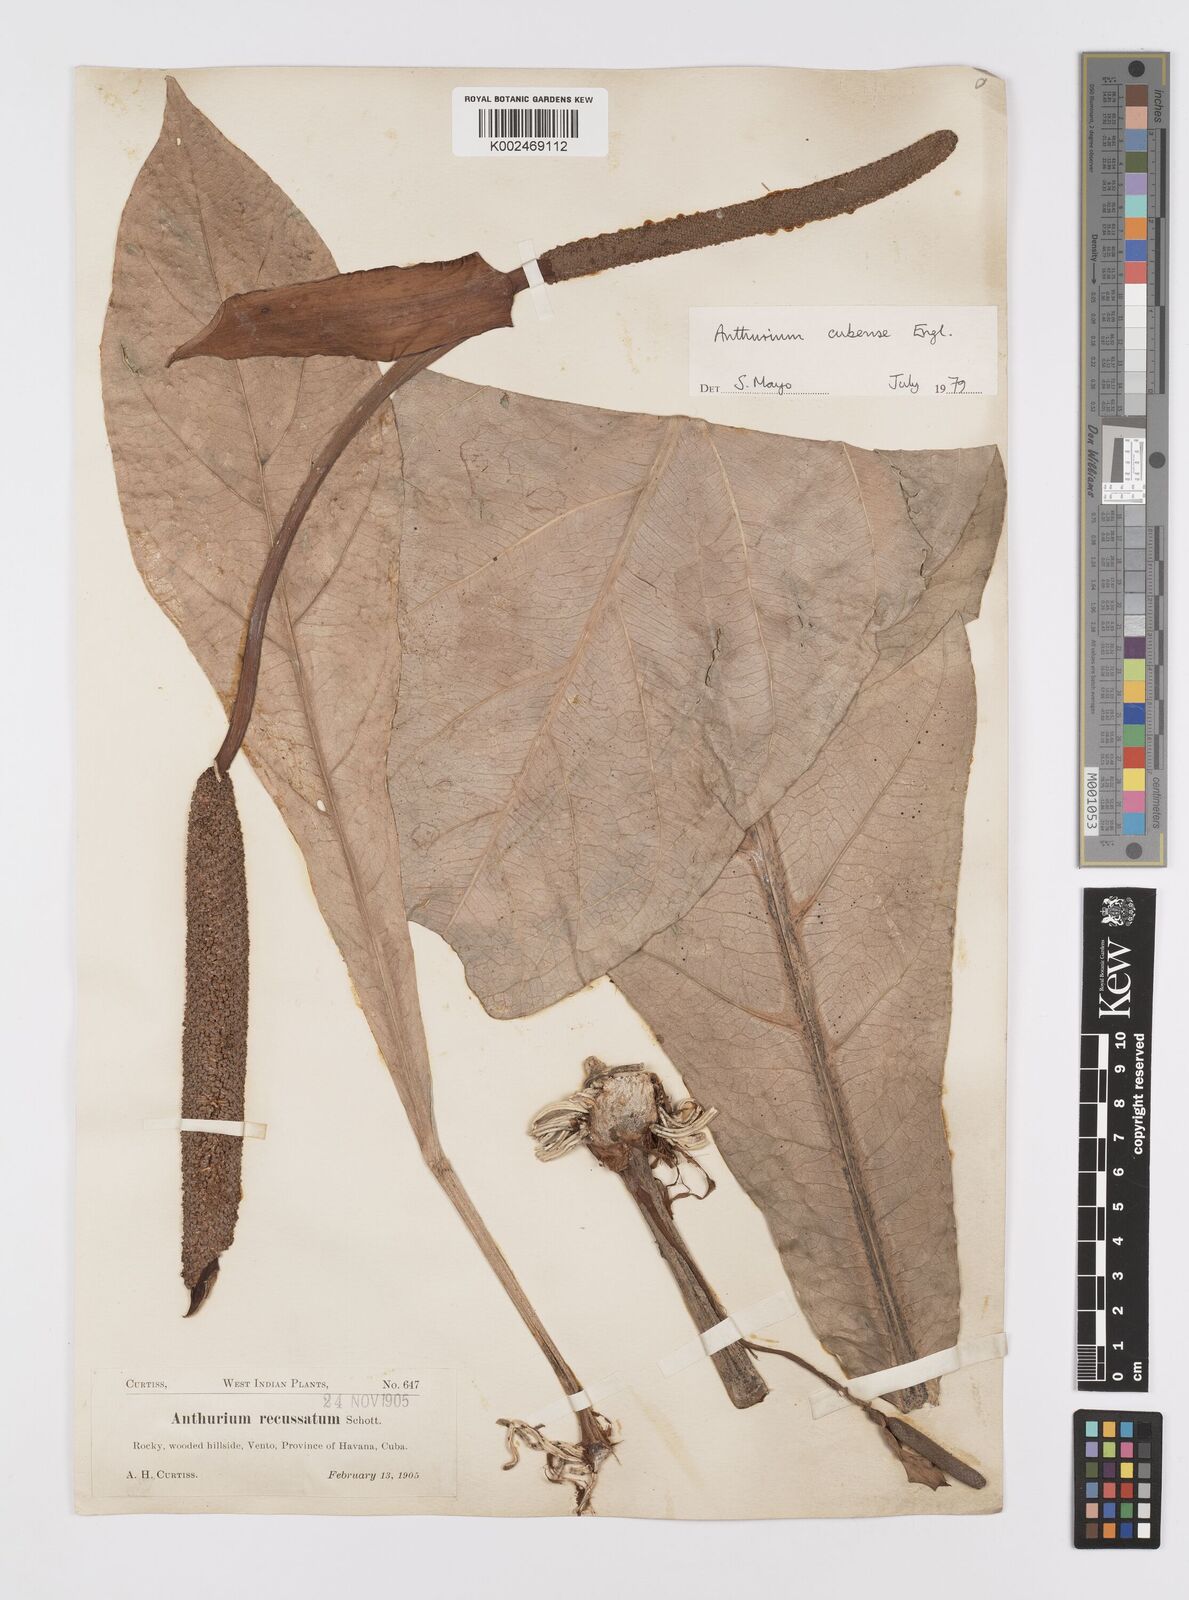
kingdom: Plantae
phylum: Tracheophyta
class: Liliopsida
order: Alismatales
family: Araceae
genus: Anthurium
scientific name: Anthurium cubense
